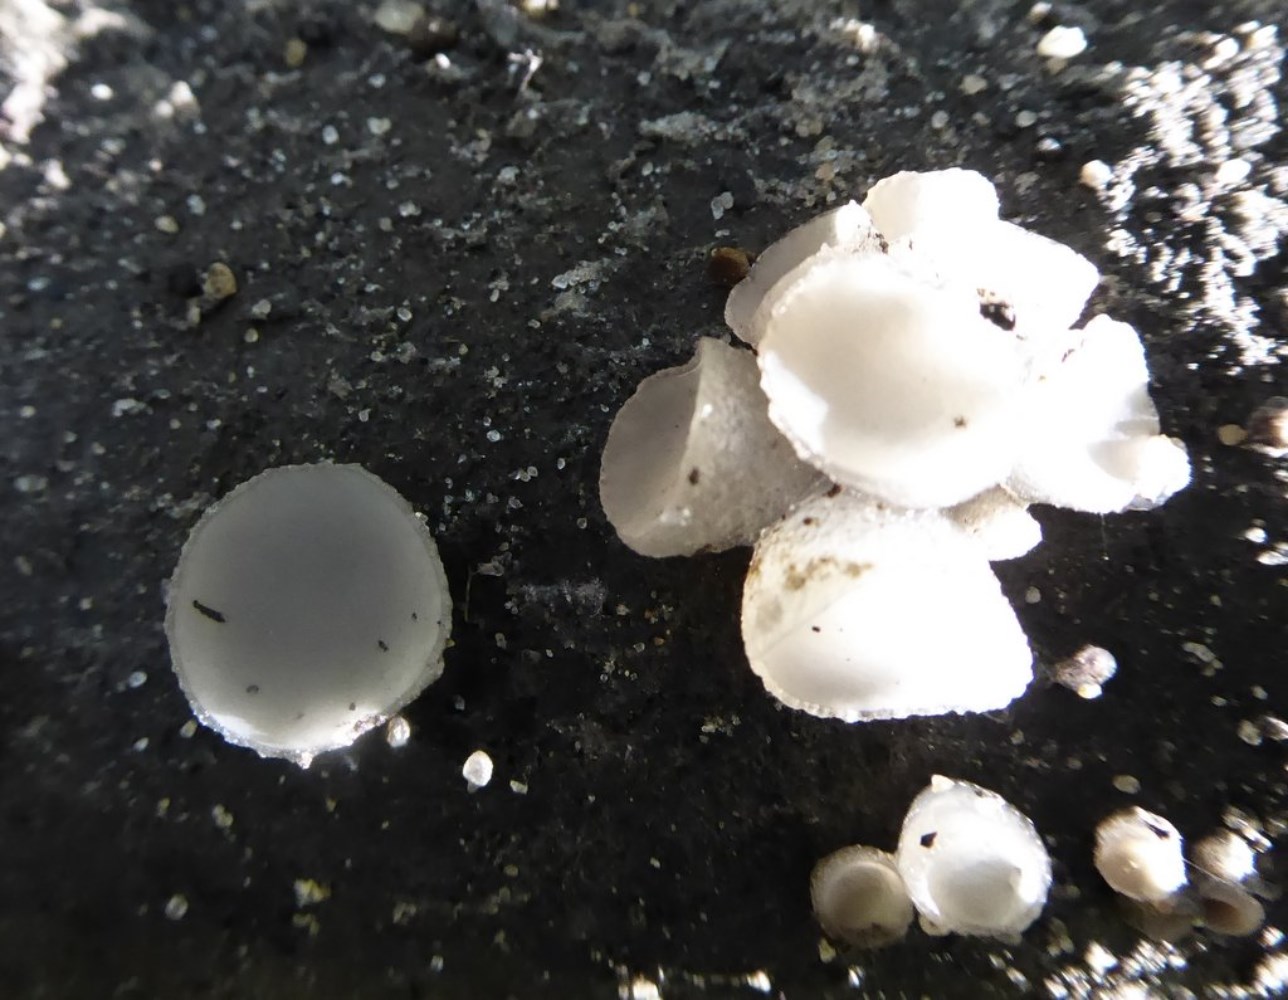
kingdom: Fungi
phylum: Ascomycota
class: Leotiomycetes
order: Helotiales
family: Gelatinodiscaceae
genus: Neobulgaria
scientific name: Neobulgaria pura
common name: bleg bævreskive
